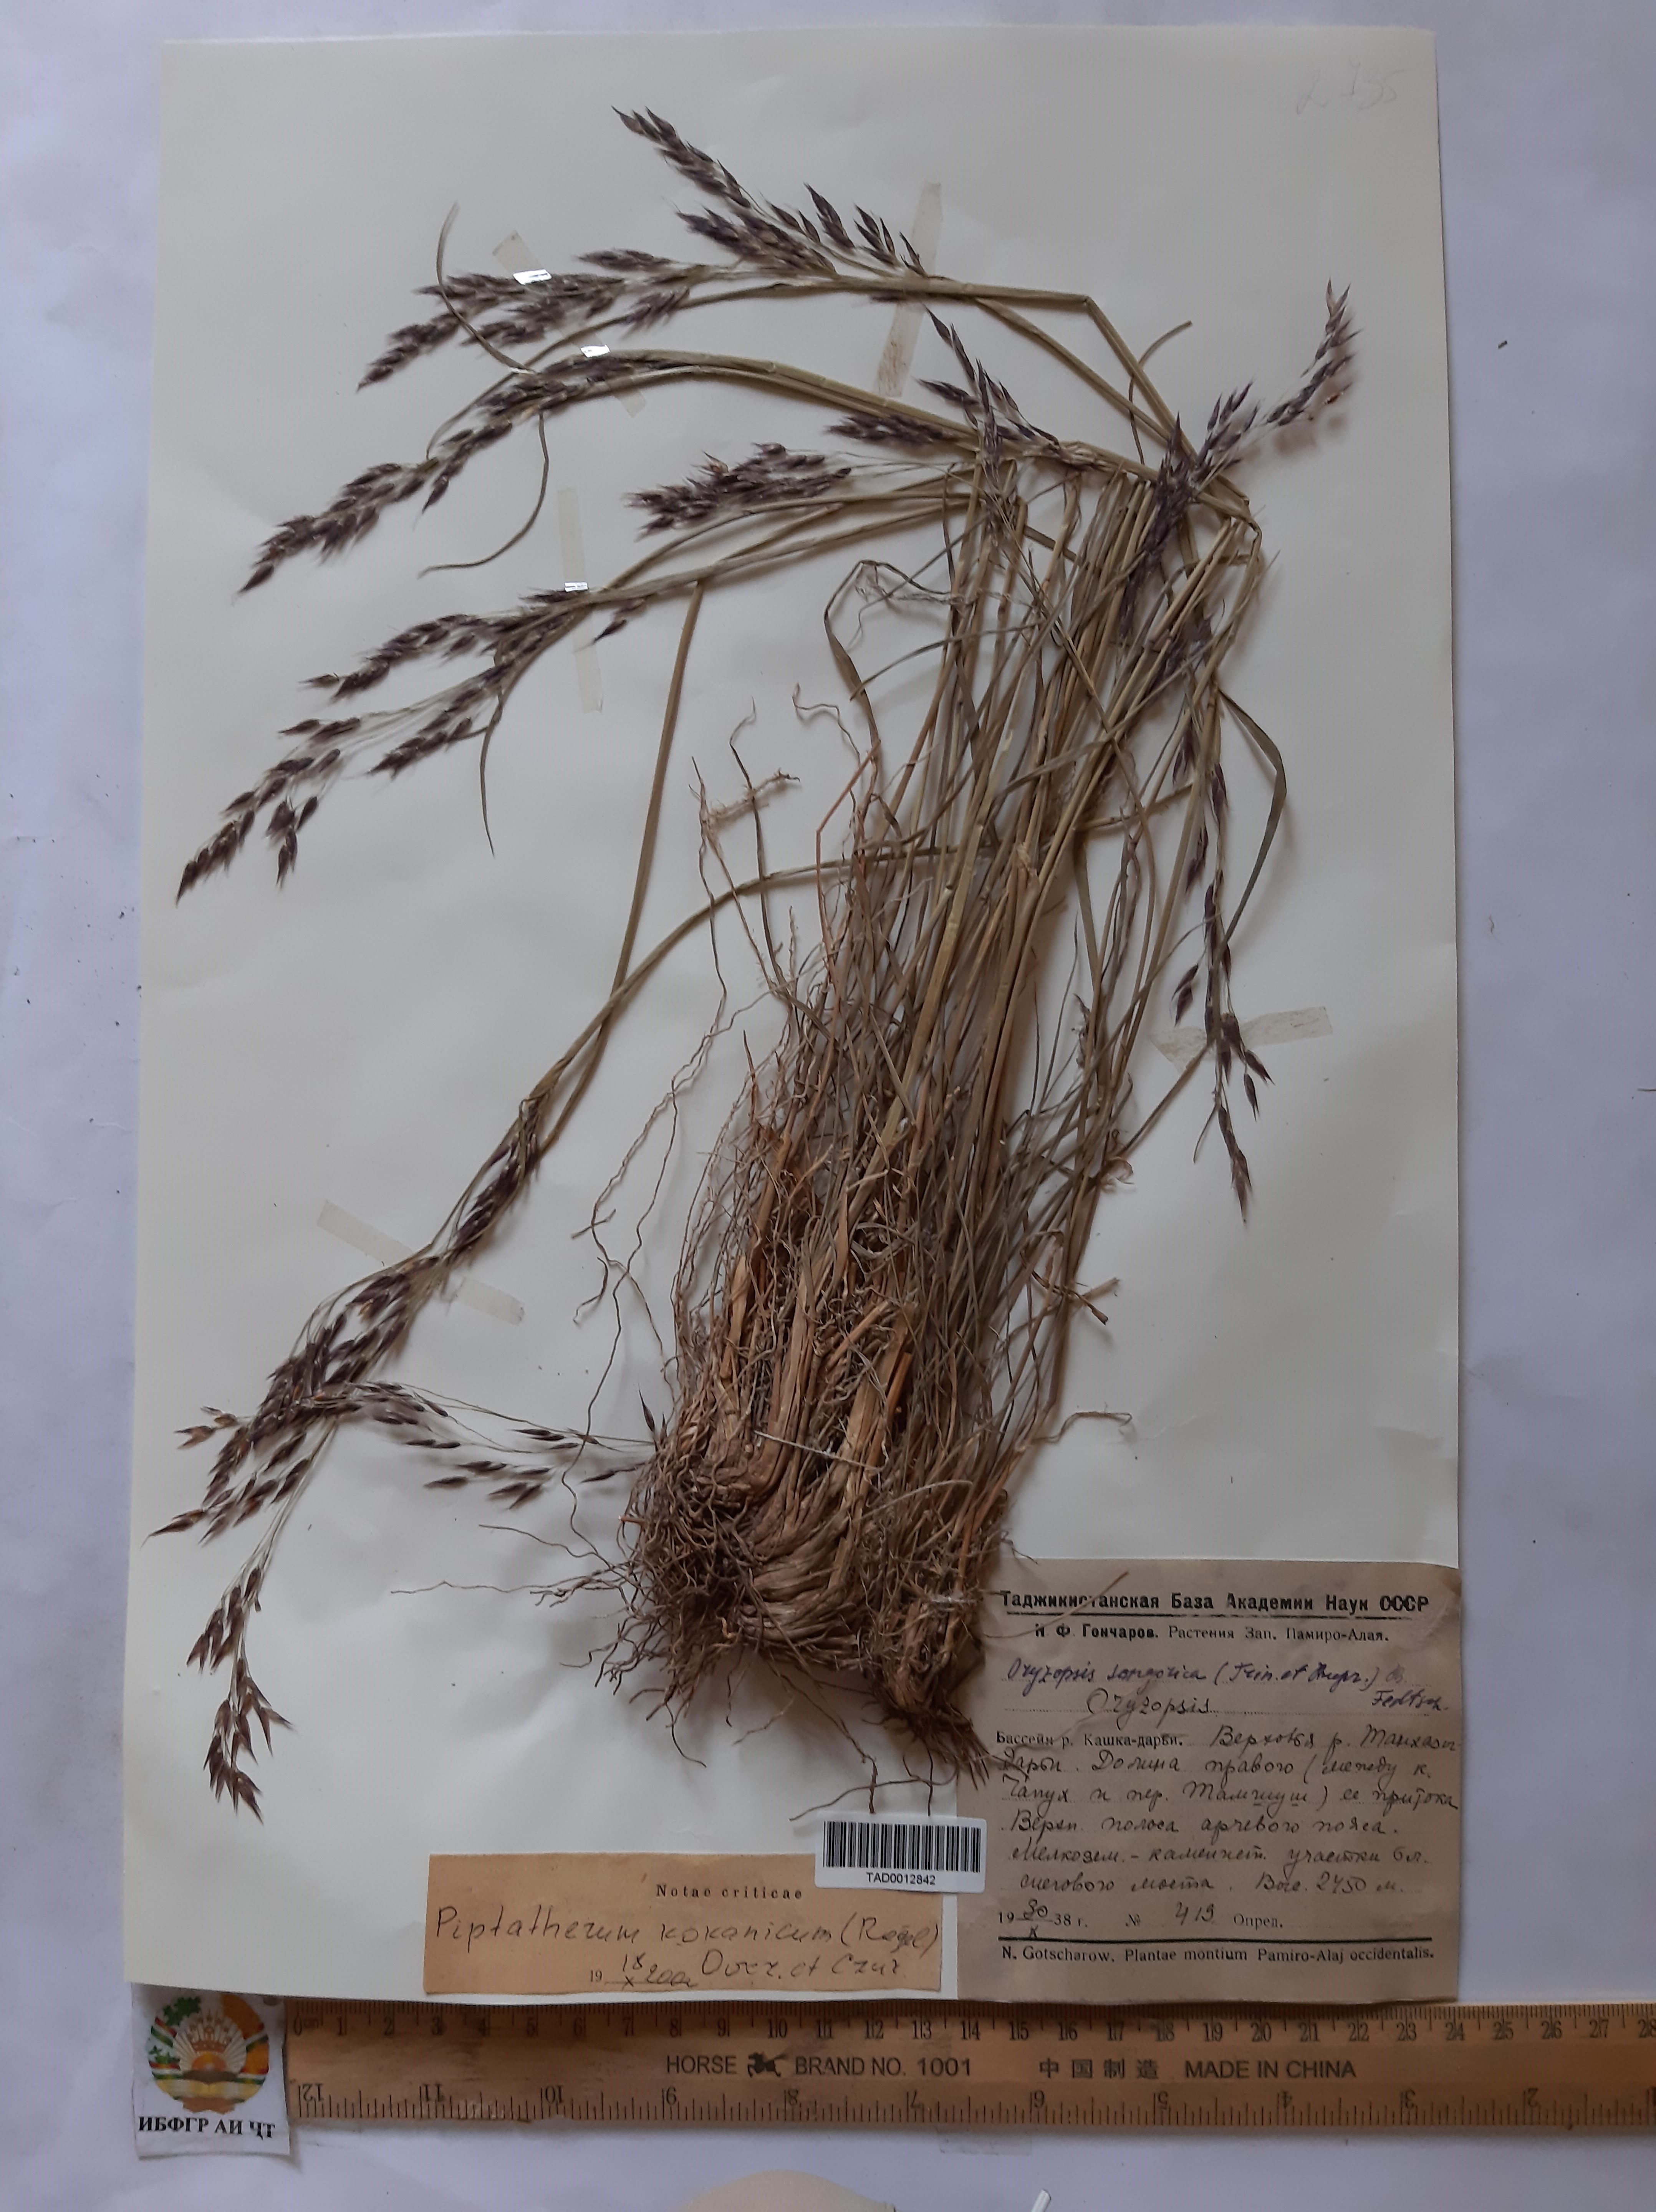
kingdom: Plantae
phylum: Tracheophyta
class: Liliopsida
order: Poales
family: Poaceae
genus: Piptatherum
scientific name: Piptatherum songaricum
